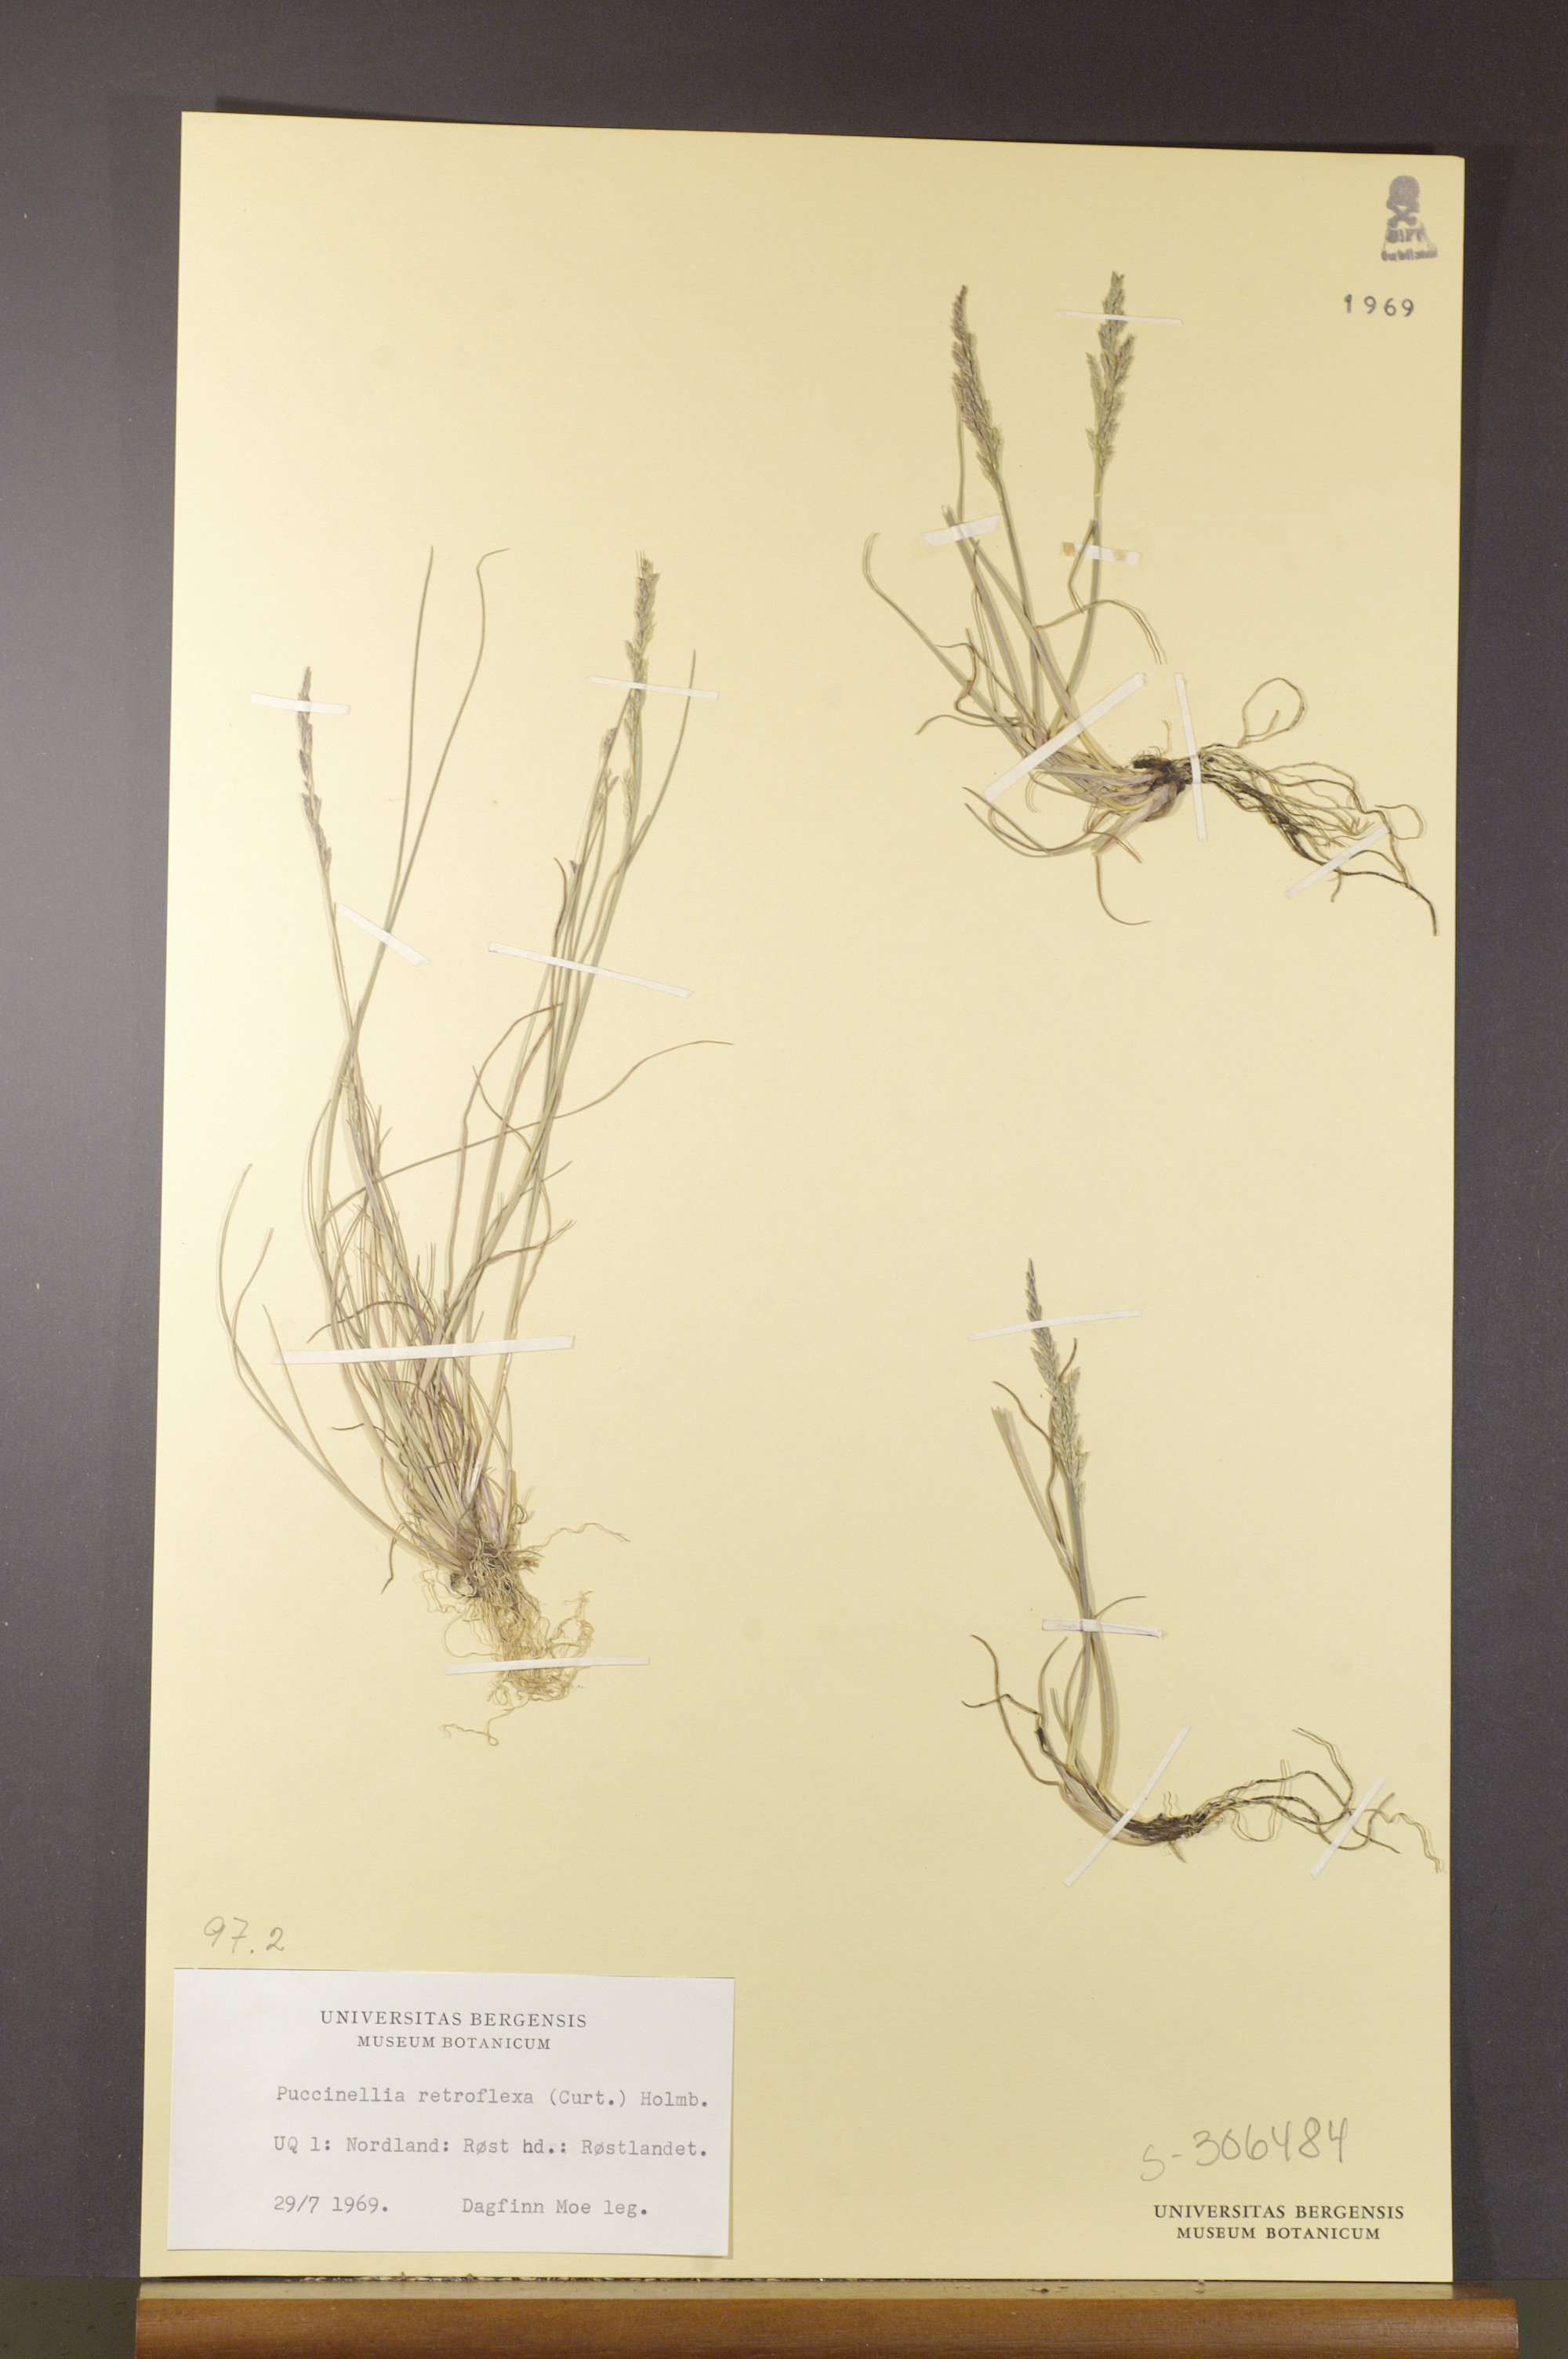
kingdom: Plantae
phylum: Tracheophyta
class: Liliopsida
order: Poales
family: Poaceae
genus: Puccinellia
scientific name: Puccinellia distans
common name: Weeping alkaligrass
